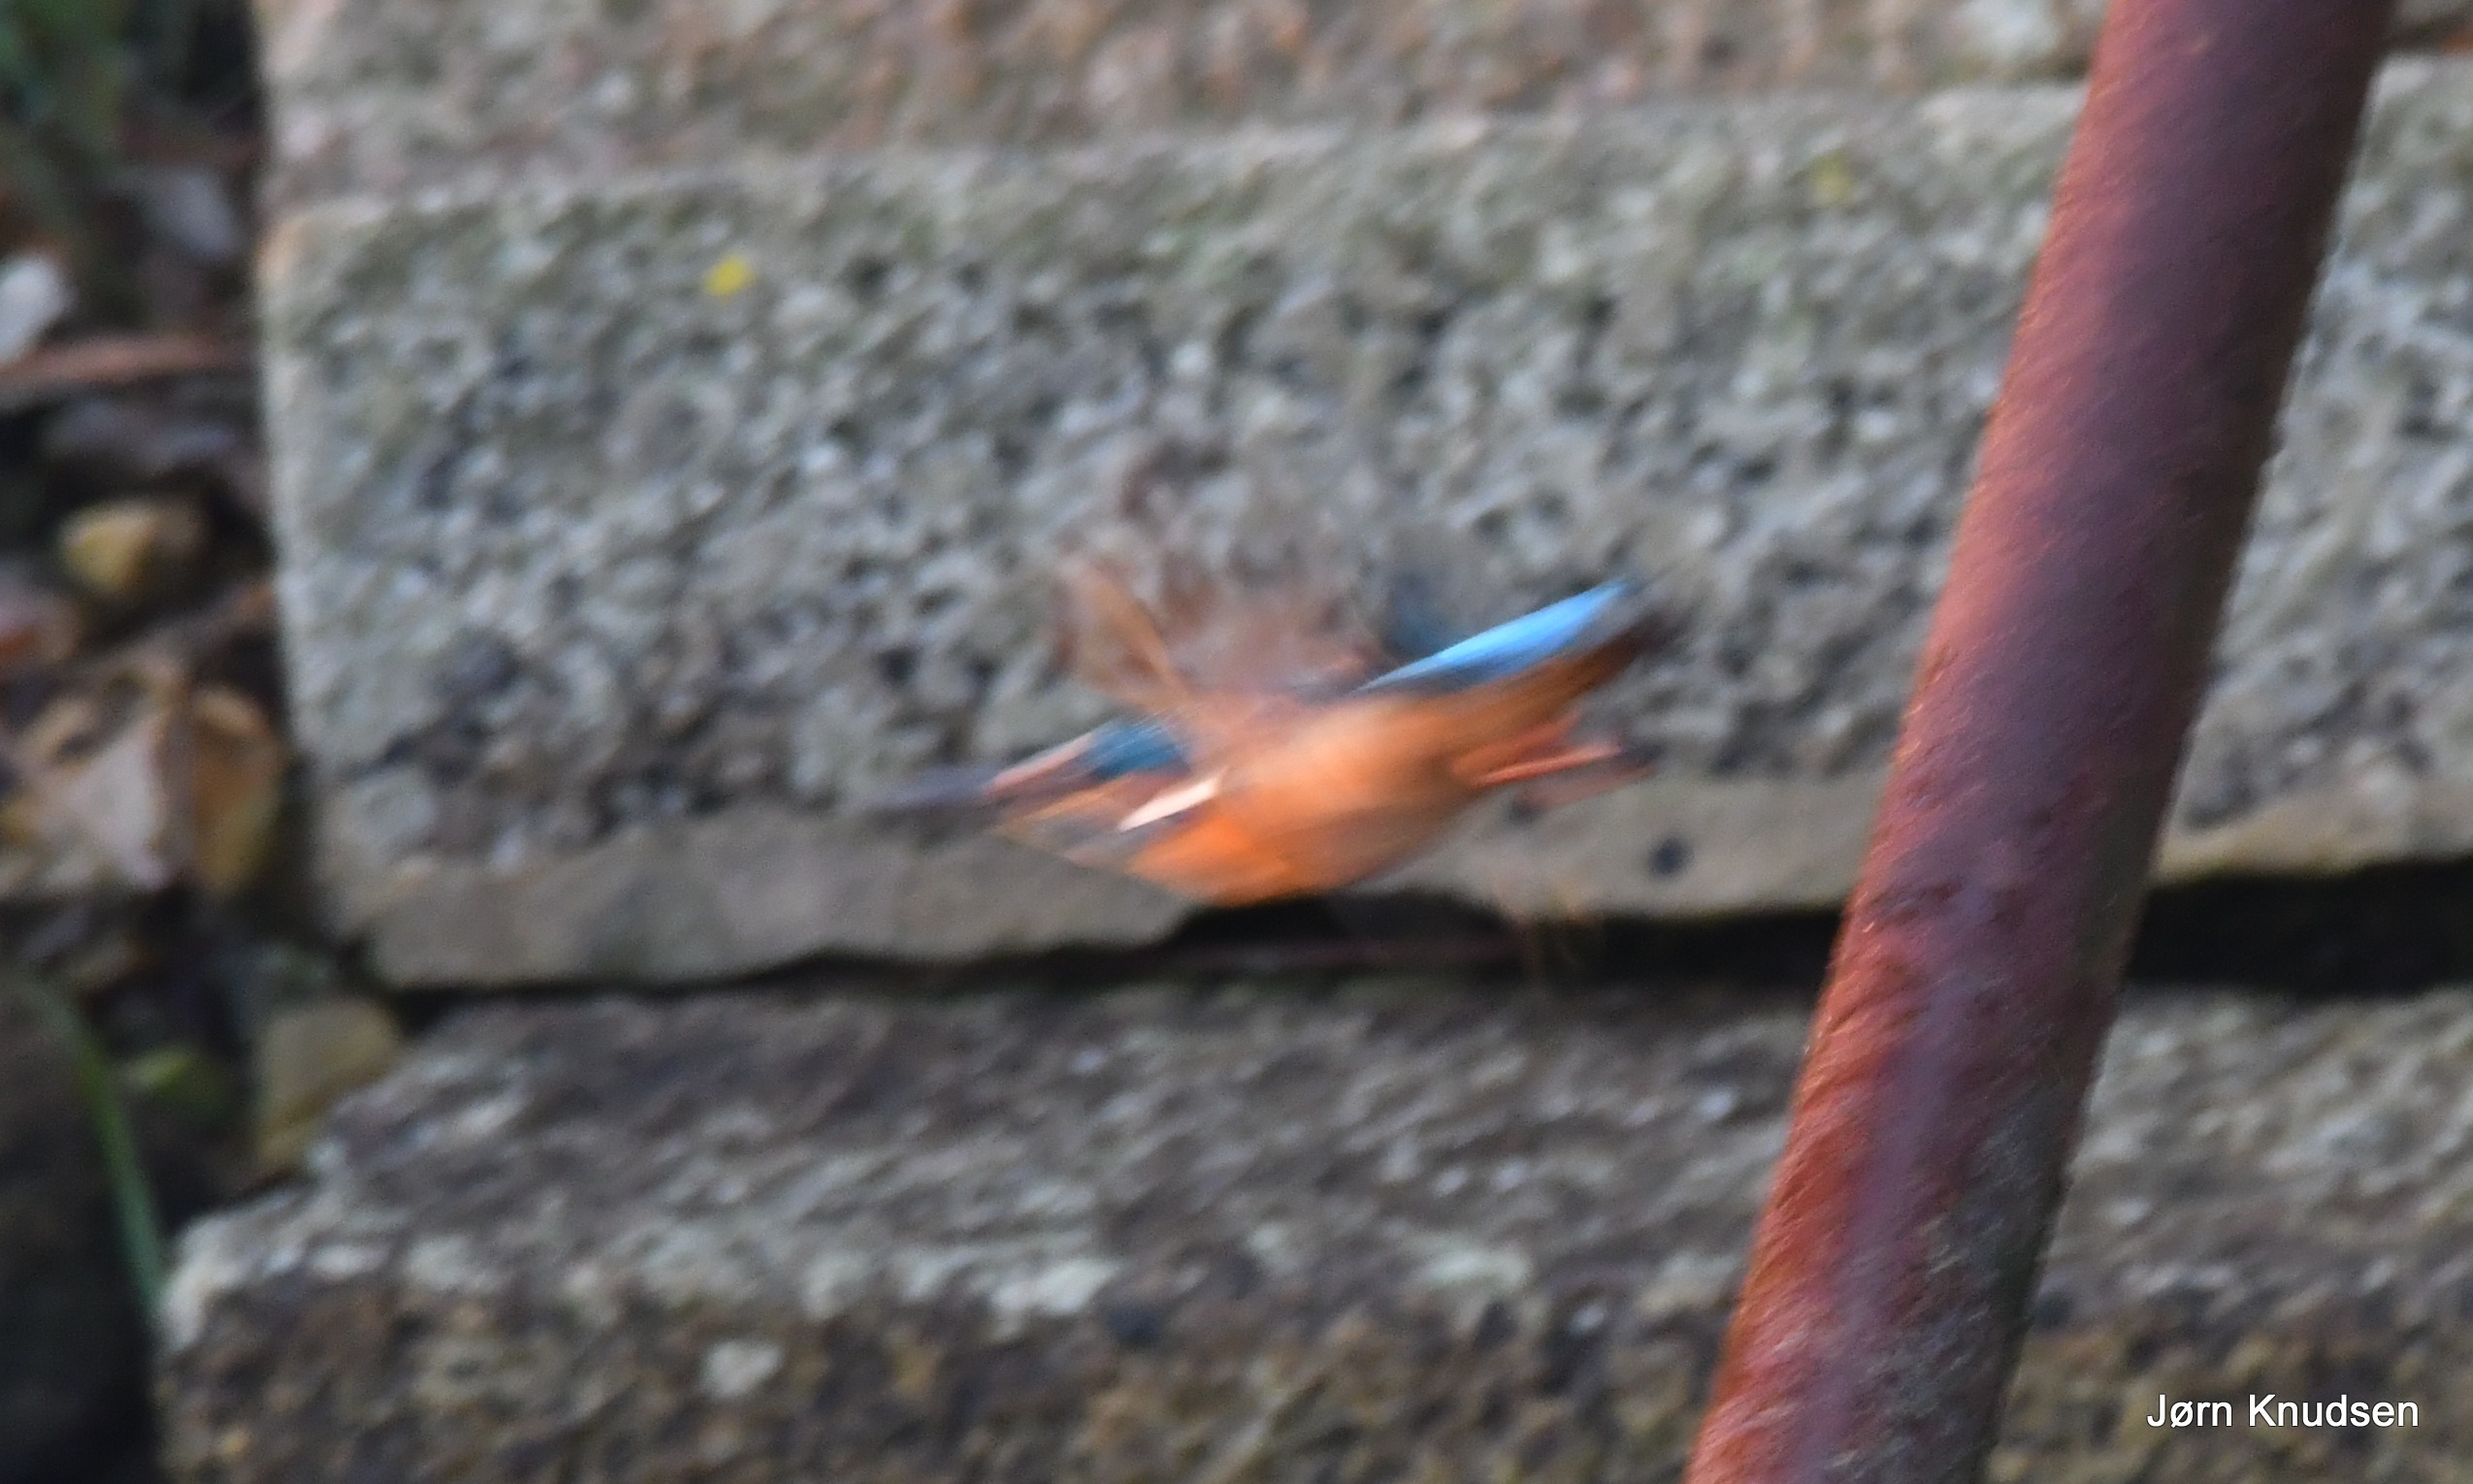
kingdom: Animalia
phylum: Chordata
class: Aves
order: Coraciiformes
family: Alcedinidae
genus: Alcedo
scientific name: Alcedo atthis
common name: Isfugl
